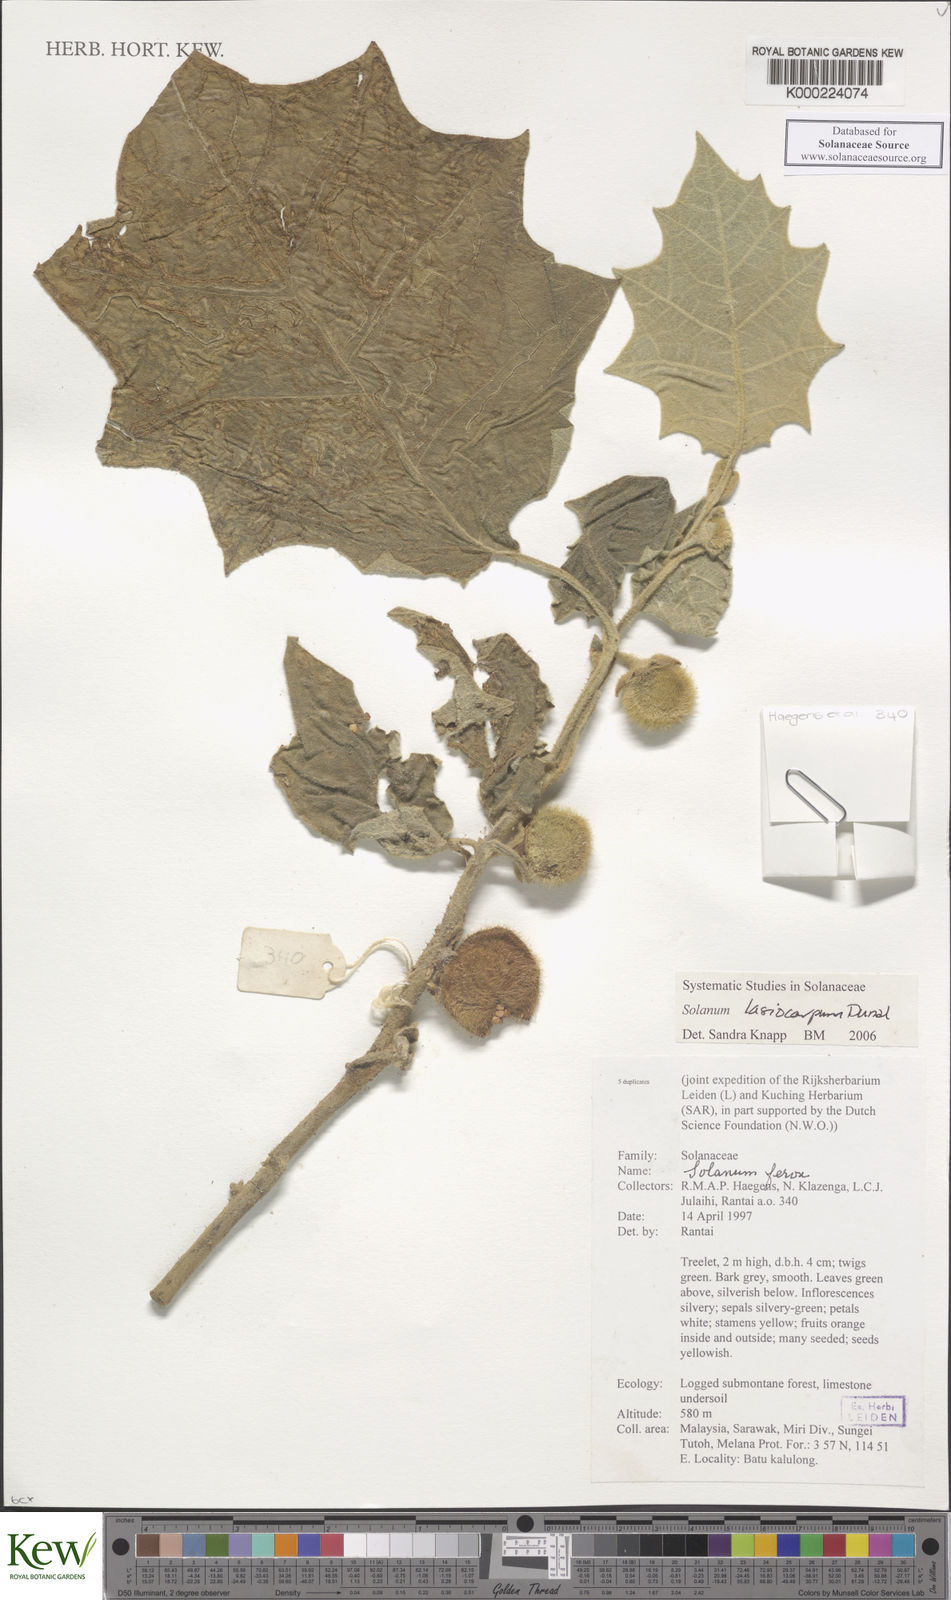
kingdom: Plantae
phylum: Tracheophyta
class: Magnoliopsida
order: Solanales
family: Solanaceae
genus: Solanum
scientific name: Solanum lasiocarpum
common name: Indian nightshade
